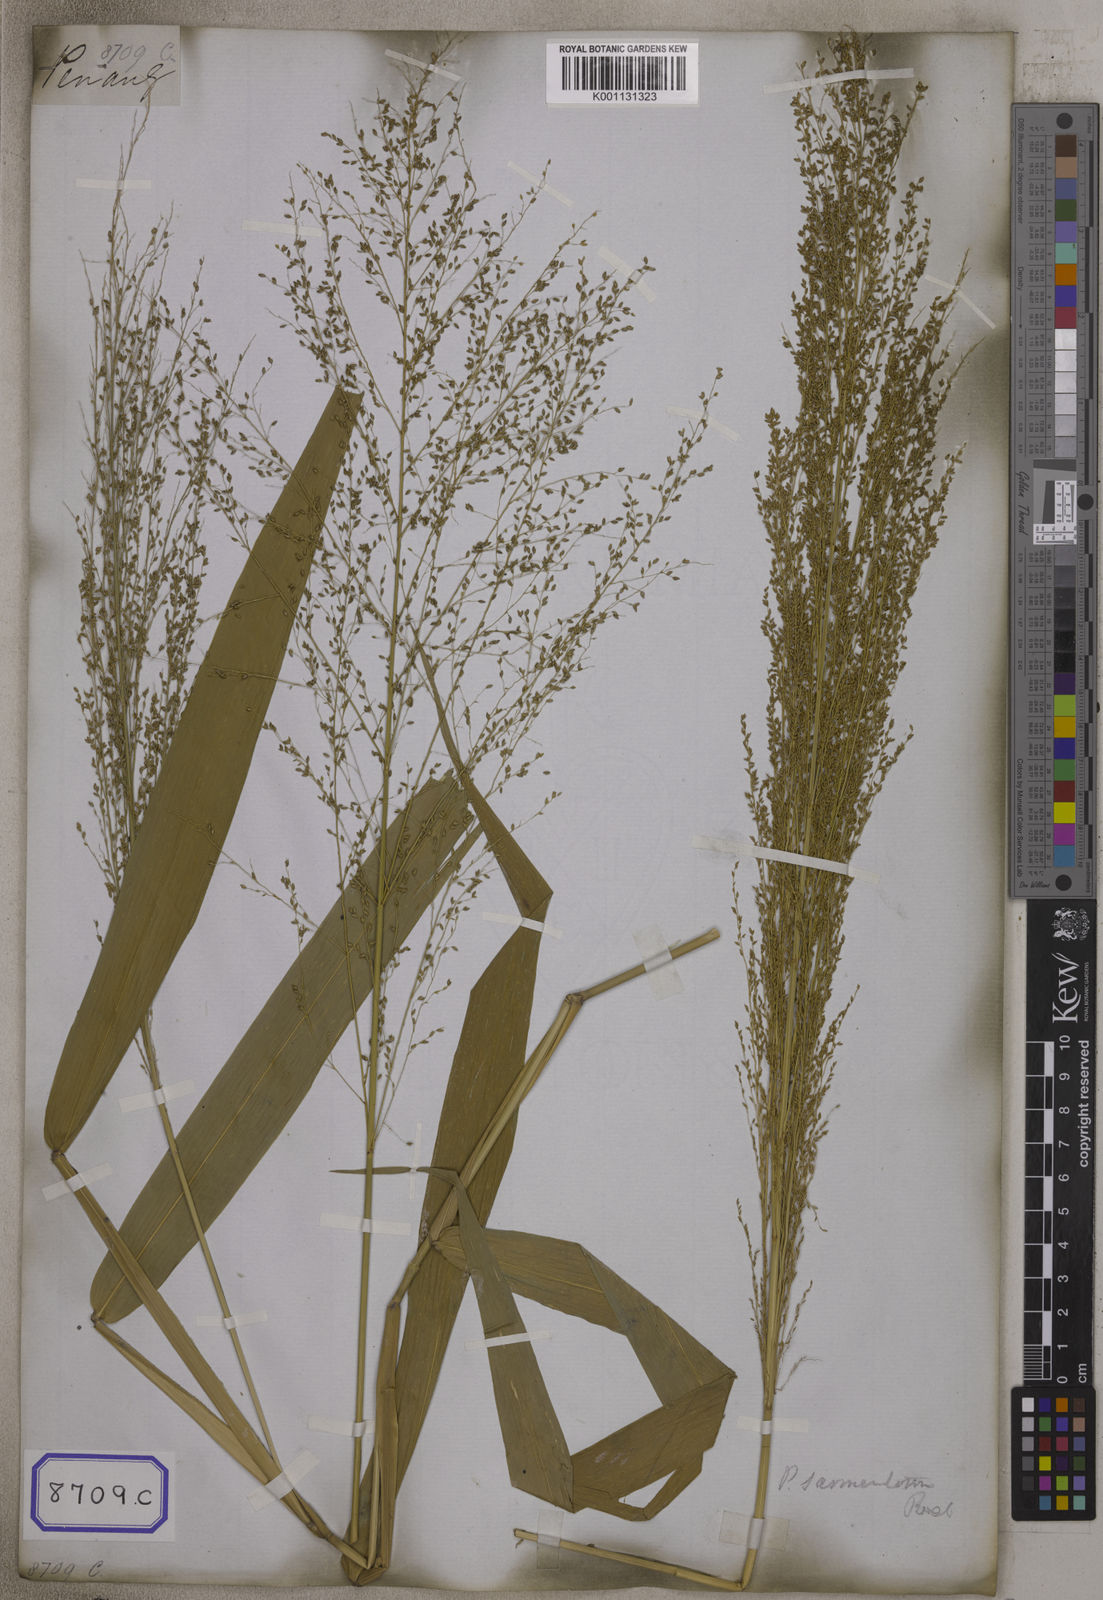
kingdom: Plantae
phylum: Tracheophyta
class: Liliopsida
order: Poales
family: Poaceae
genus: Panicum
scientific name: Panicum
